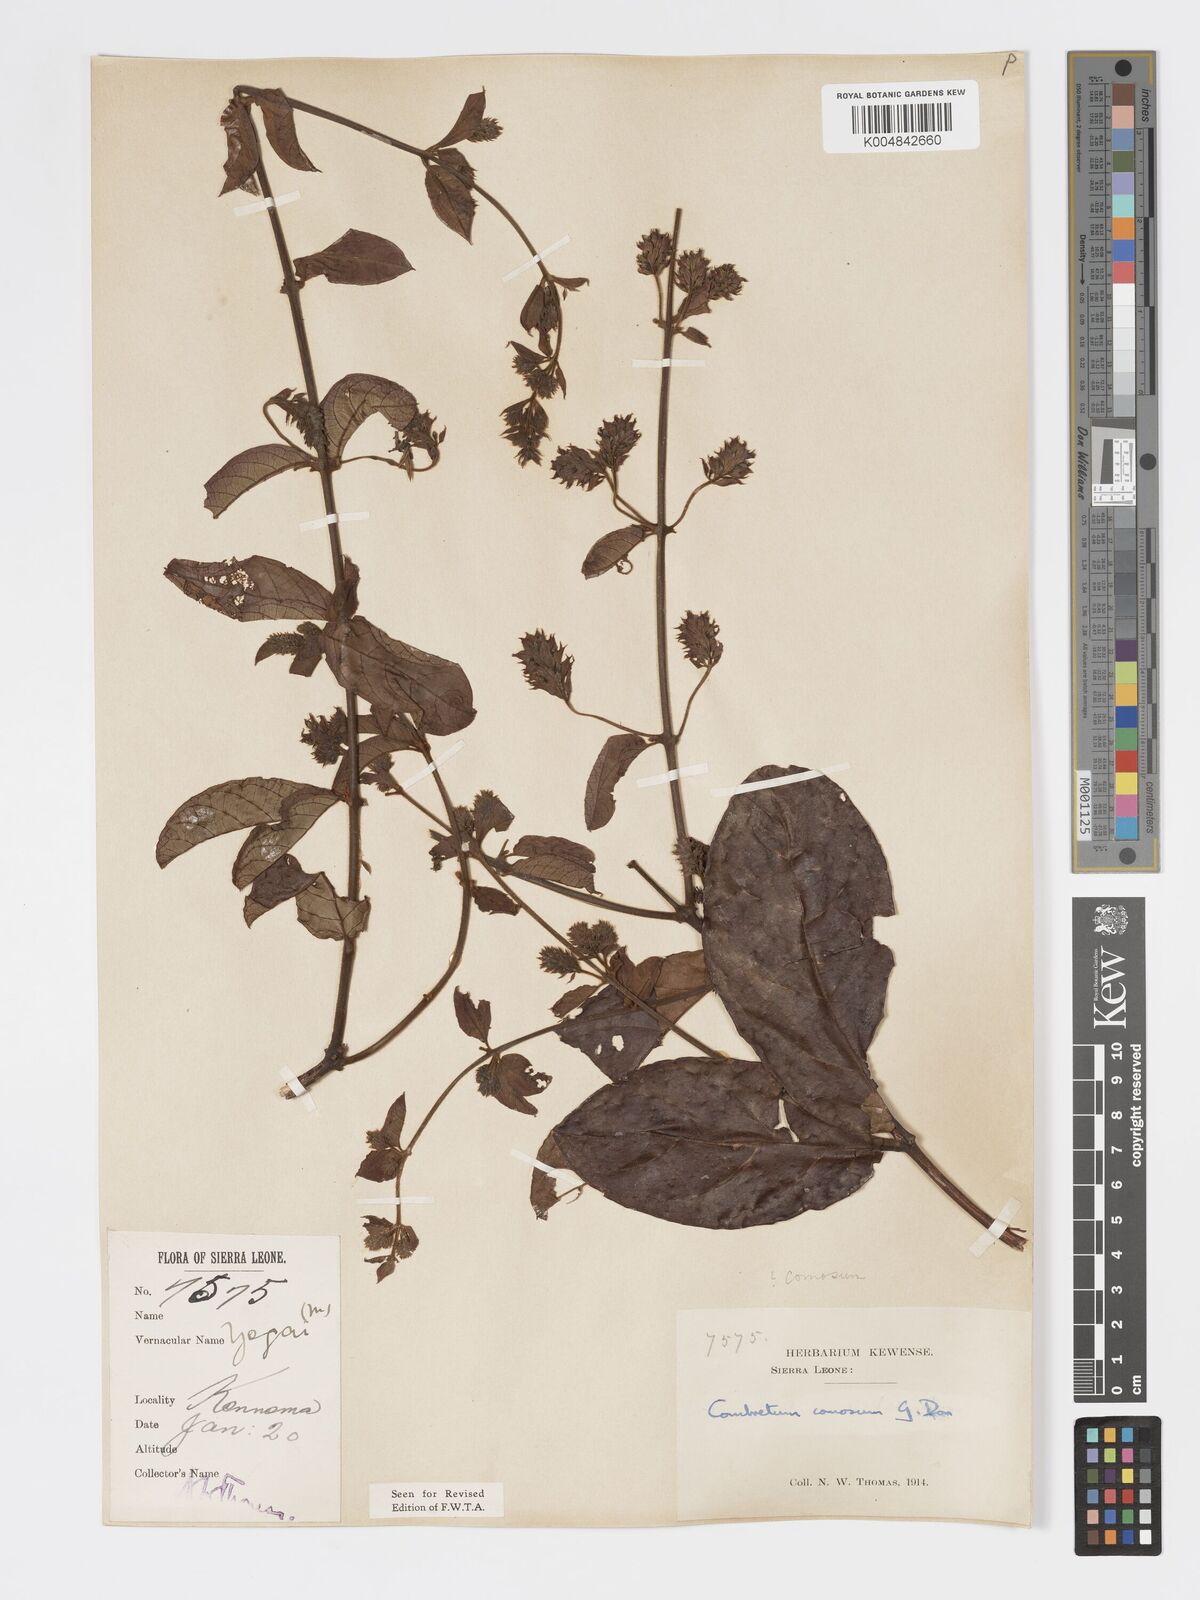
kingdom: Plantae
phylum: Tracheophyta
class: Magnoliopsida
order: Myrtales
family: Combretaceae
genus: Combretum
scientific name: Combretum comosum
